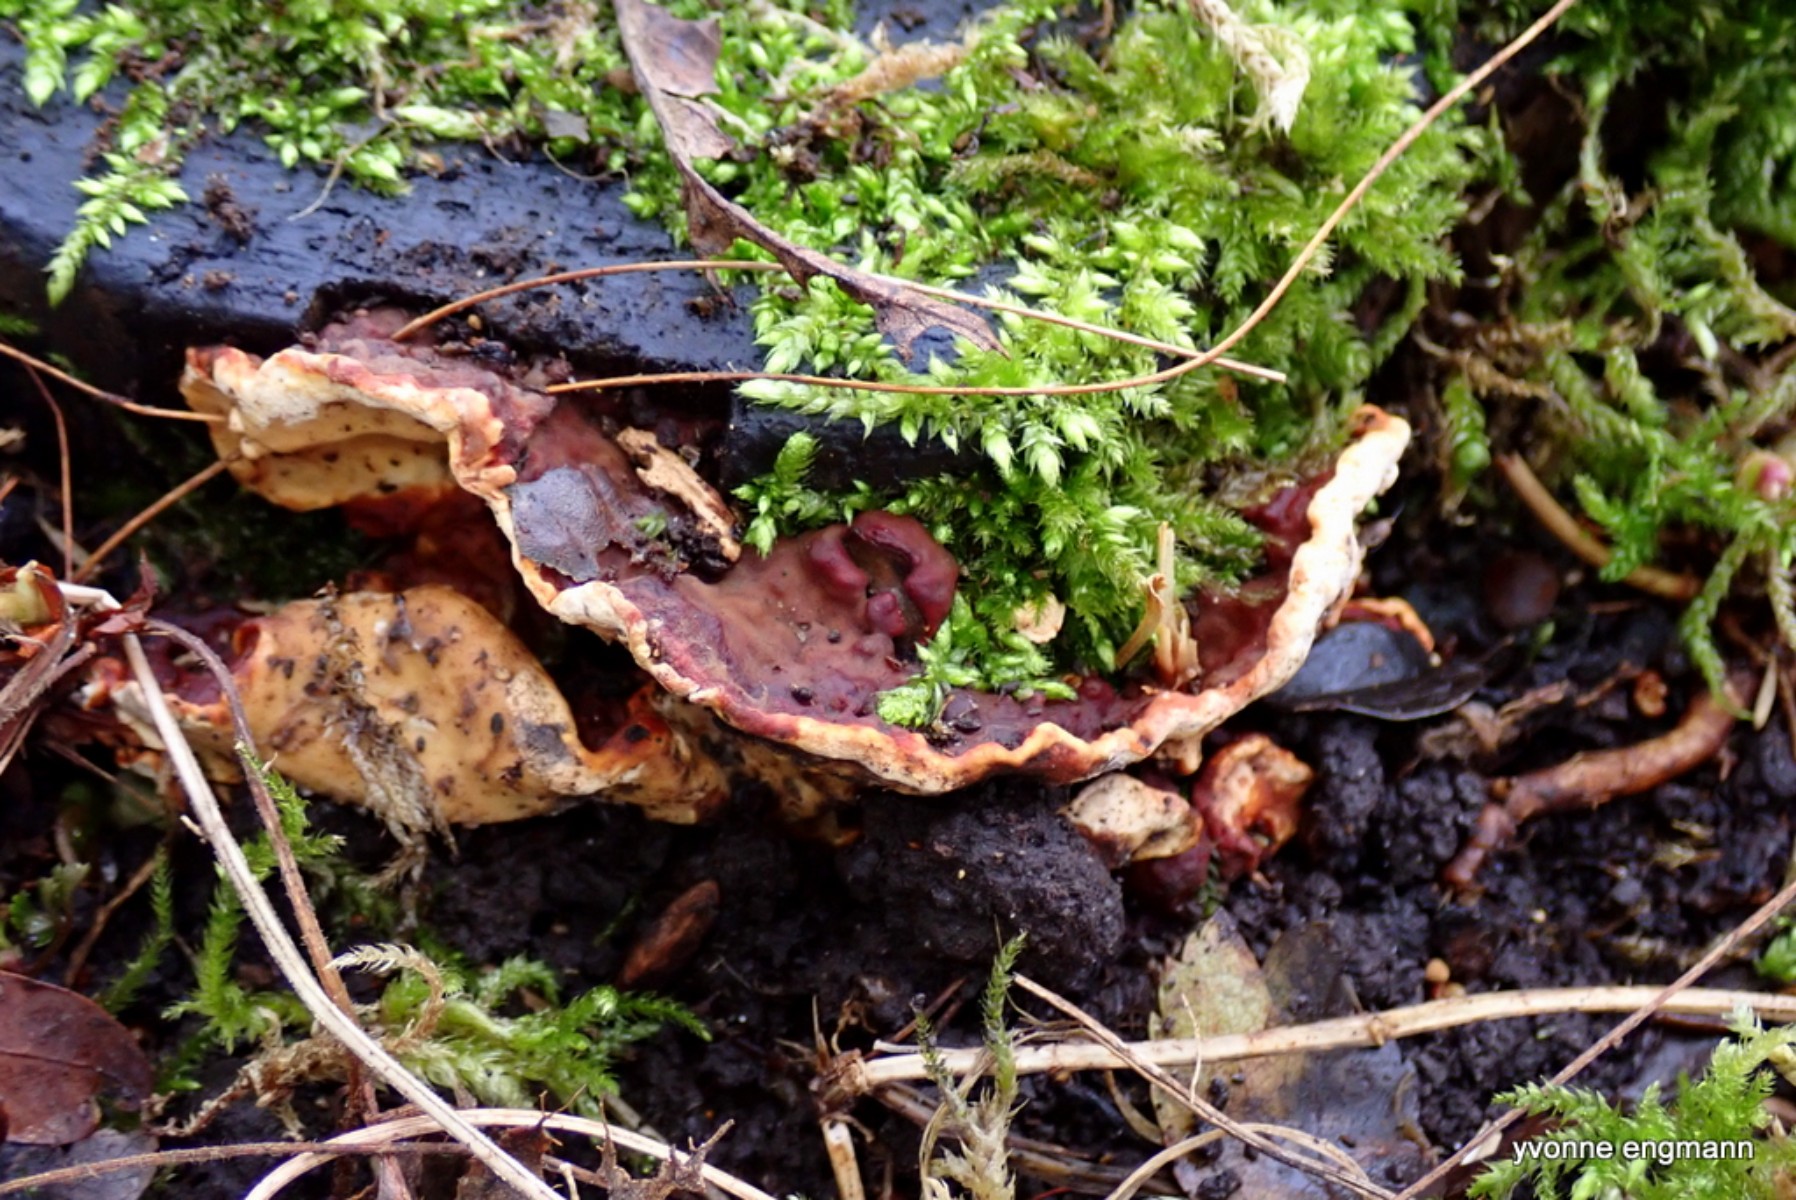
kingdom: Fungi
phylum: Basidiomycota
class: Agaricomycetes
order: Russulales
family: Bondarzewiaceae
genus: Heterobasidion
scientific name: Heterobasidion
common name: rodfordærver
